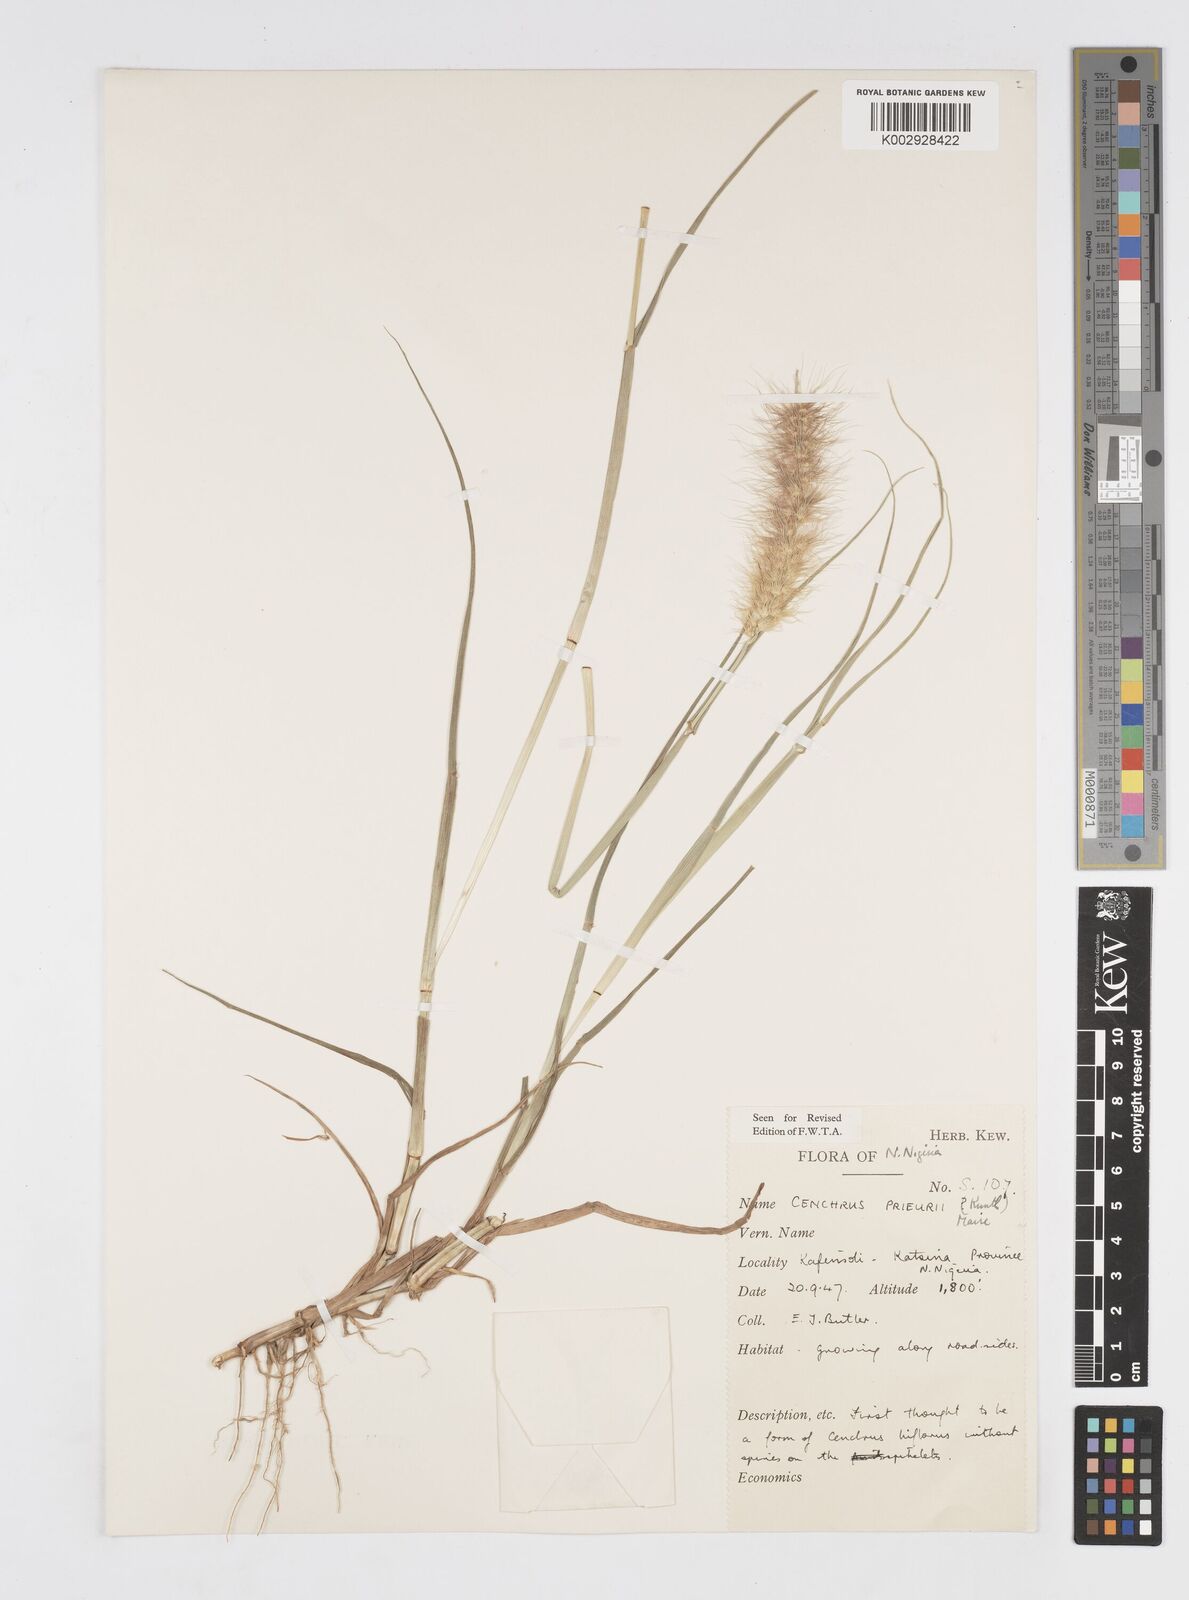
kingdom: Plantae
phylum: Tracheophyta
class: Liliopsida
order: Poales
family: Poaceae
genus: Cenchrus
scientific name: Cenchrus prieurii
